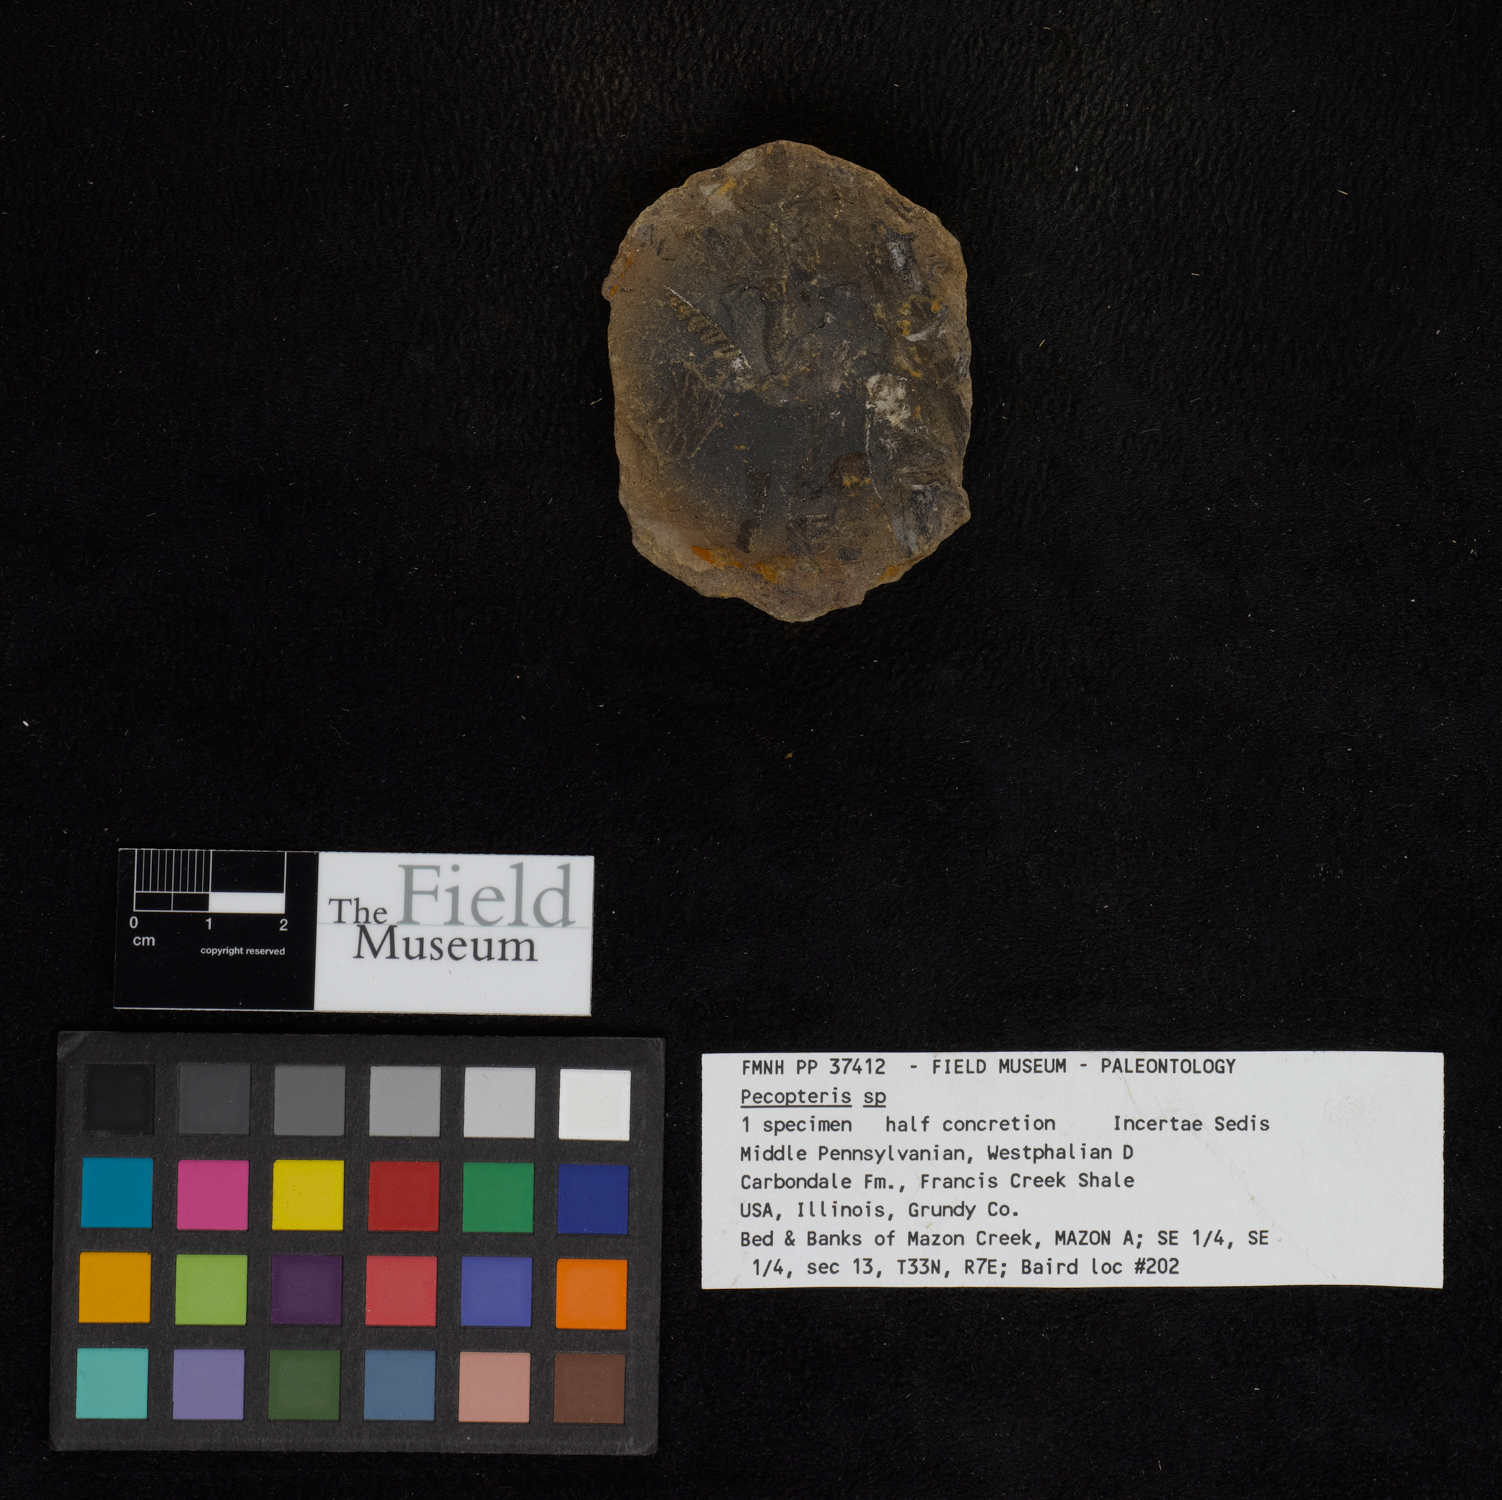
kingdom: Plantae
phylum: Tracheophyta
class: Polypodiopsida
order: Marattiales
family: Asterothecaceae
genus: Pecopteris
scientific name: Pecopteris
